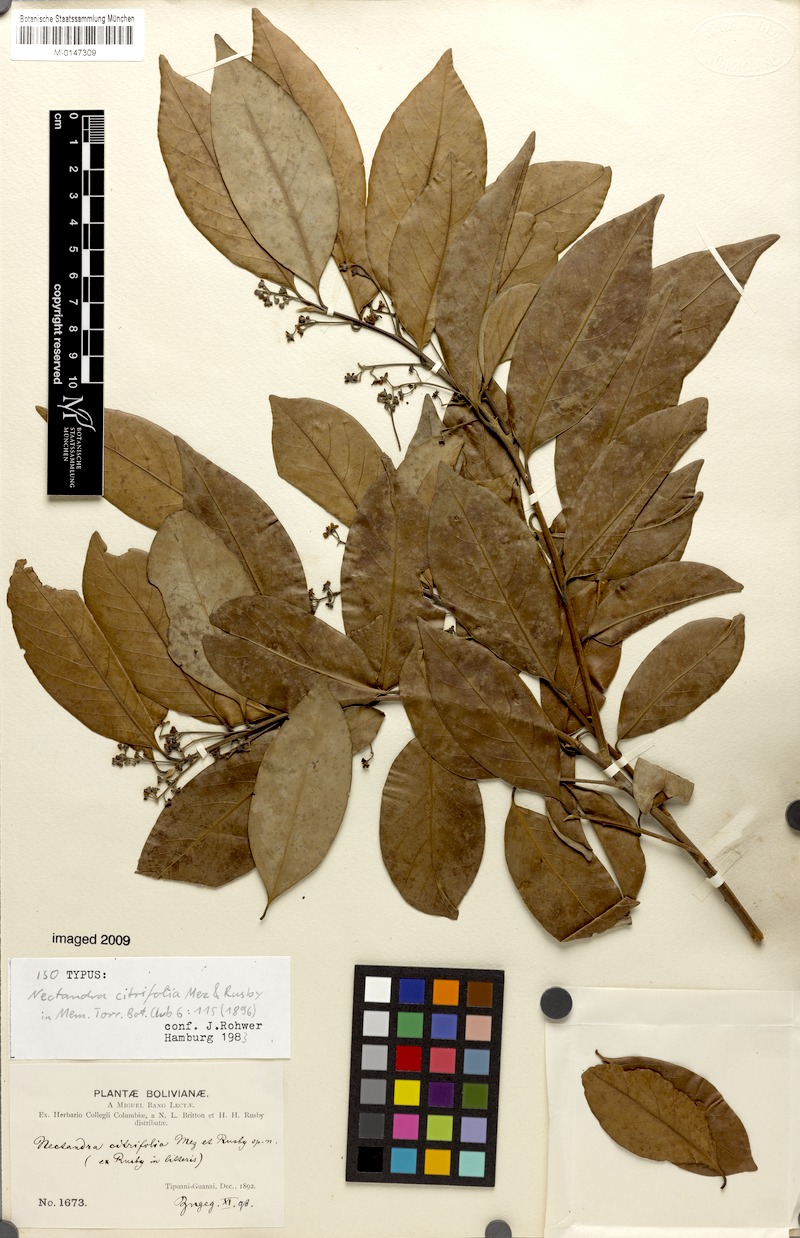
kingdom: Plantae
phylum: Tracheophyta
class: Magnoliopsida
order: Laurales
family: Lauraceae
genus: Nectandra
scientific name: Nectandra psammophila
